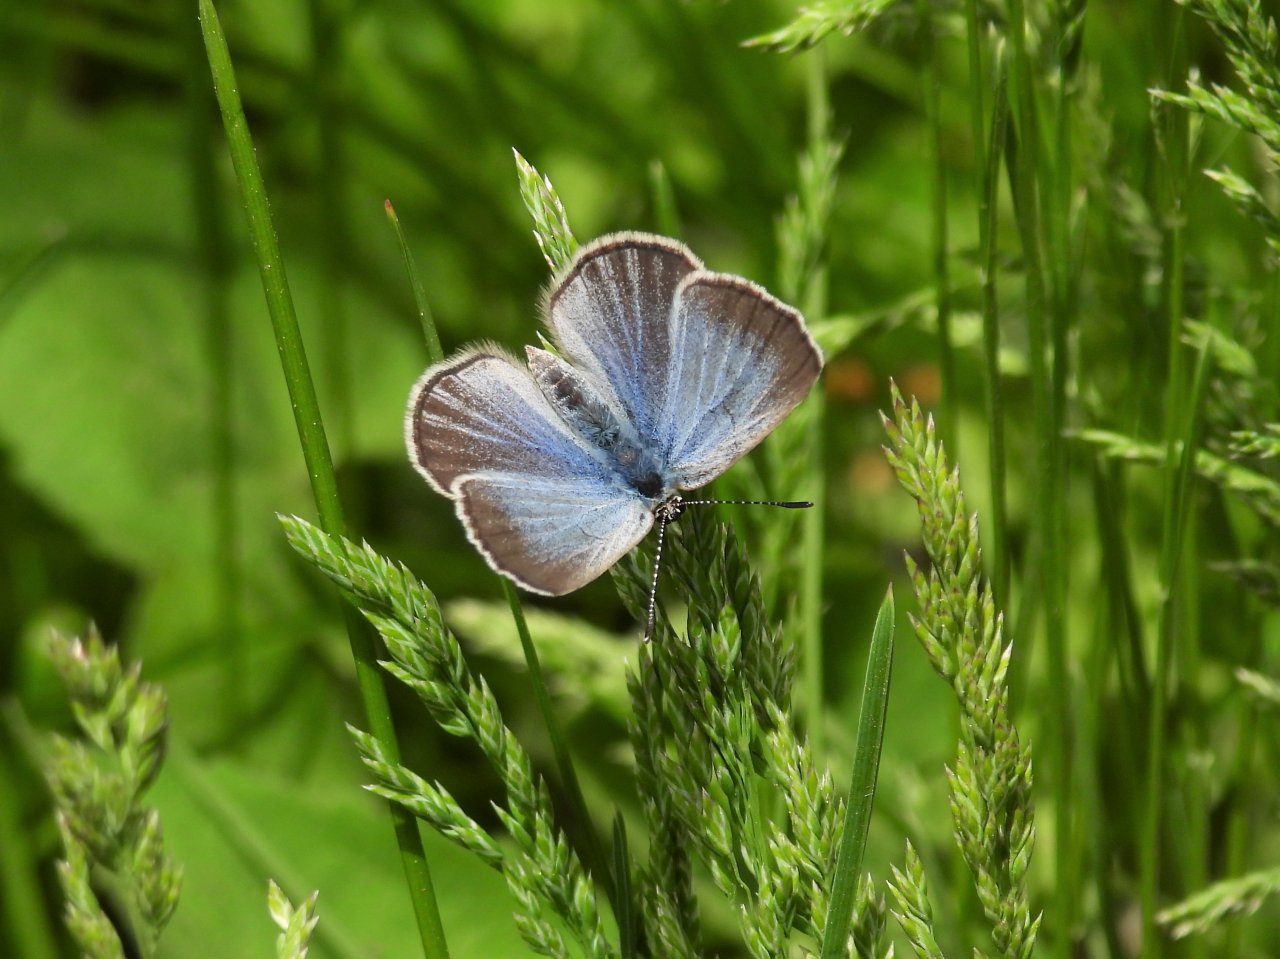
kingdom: Animalia
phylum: Arthropoda
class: Insecta
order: Lepidoptera
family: Lycaenidae
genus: Glaucopsyche
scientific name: Glaucopsyche lygdamus
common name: Silvery Blue
